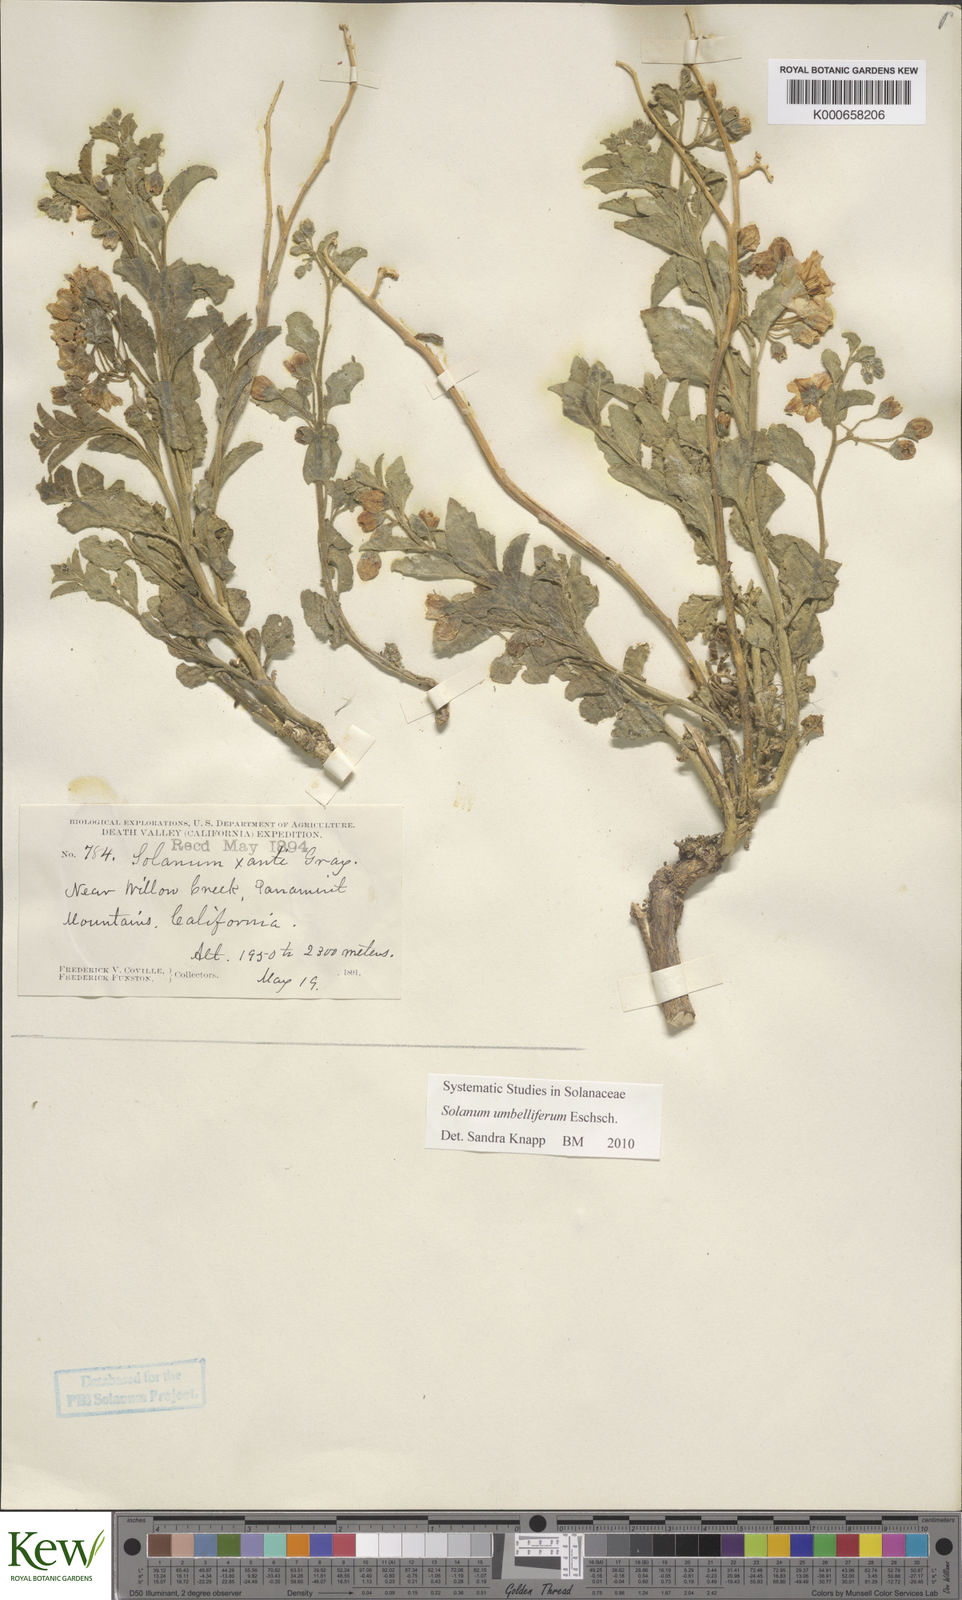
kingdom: Plantae
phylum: Tracheophyta
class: Magnoliopsida
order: Solanales
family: Solanaceae
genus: Solanum
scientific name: Solanum umbelliferum
